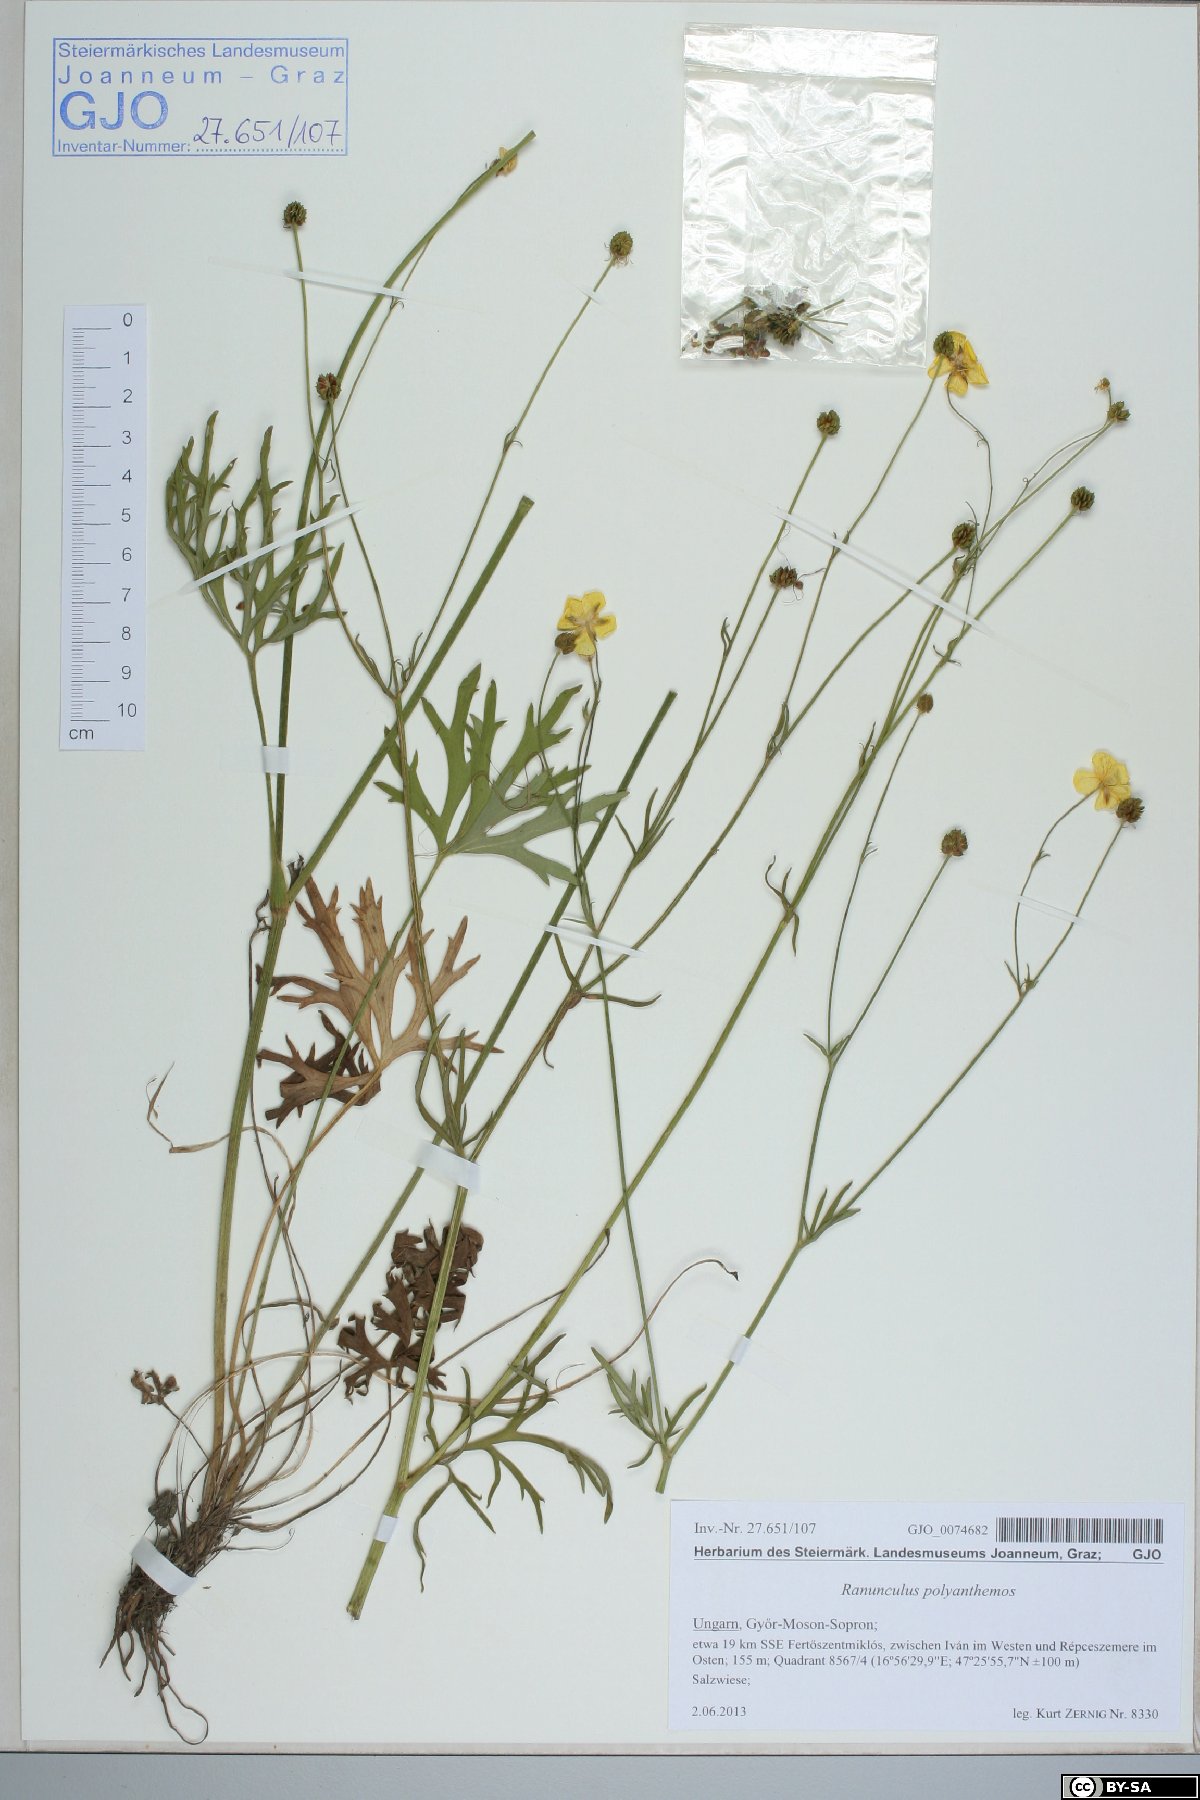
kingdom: Plantae
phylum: Tracheophyta
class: Magnoliopsida
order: Ranunculales
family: Ranunculaceae
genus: Ranunculus
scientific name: Ranunculus polyanthemos
